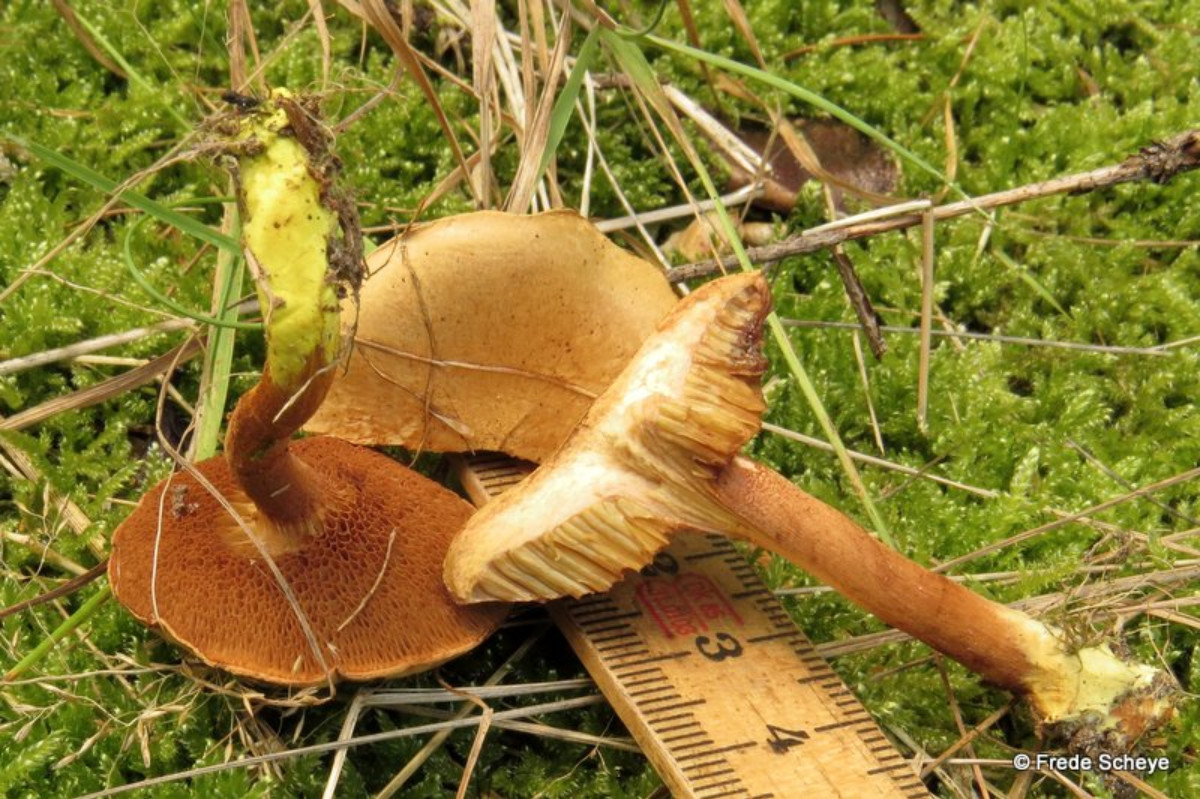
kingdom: Fungi
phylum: Basidiomycota
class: Agaricomycetes
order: Boletales
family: Boletaceae
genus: Chalciporus
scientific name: Chalciporus piperatus
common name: peberrørhat
